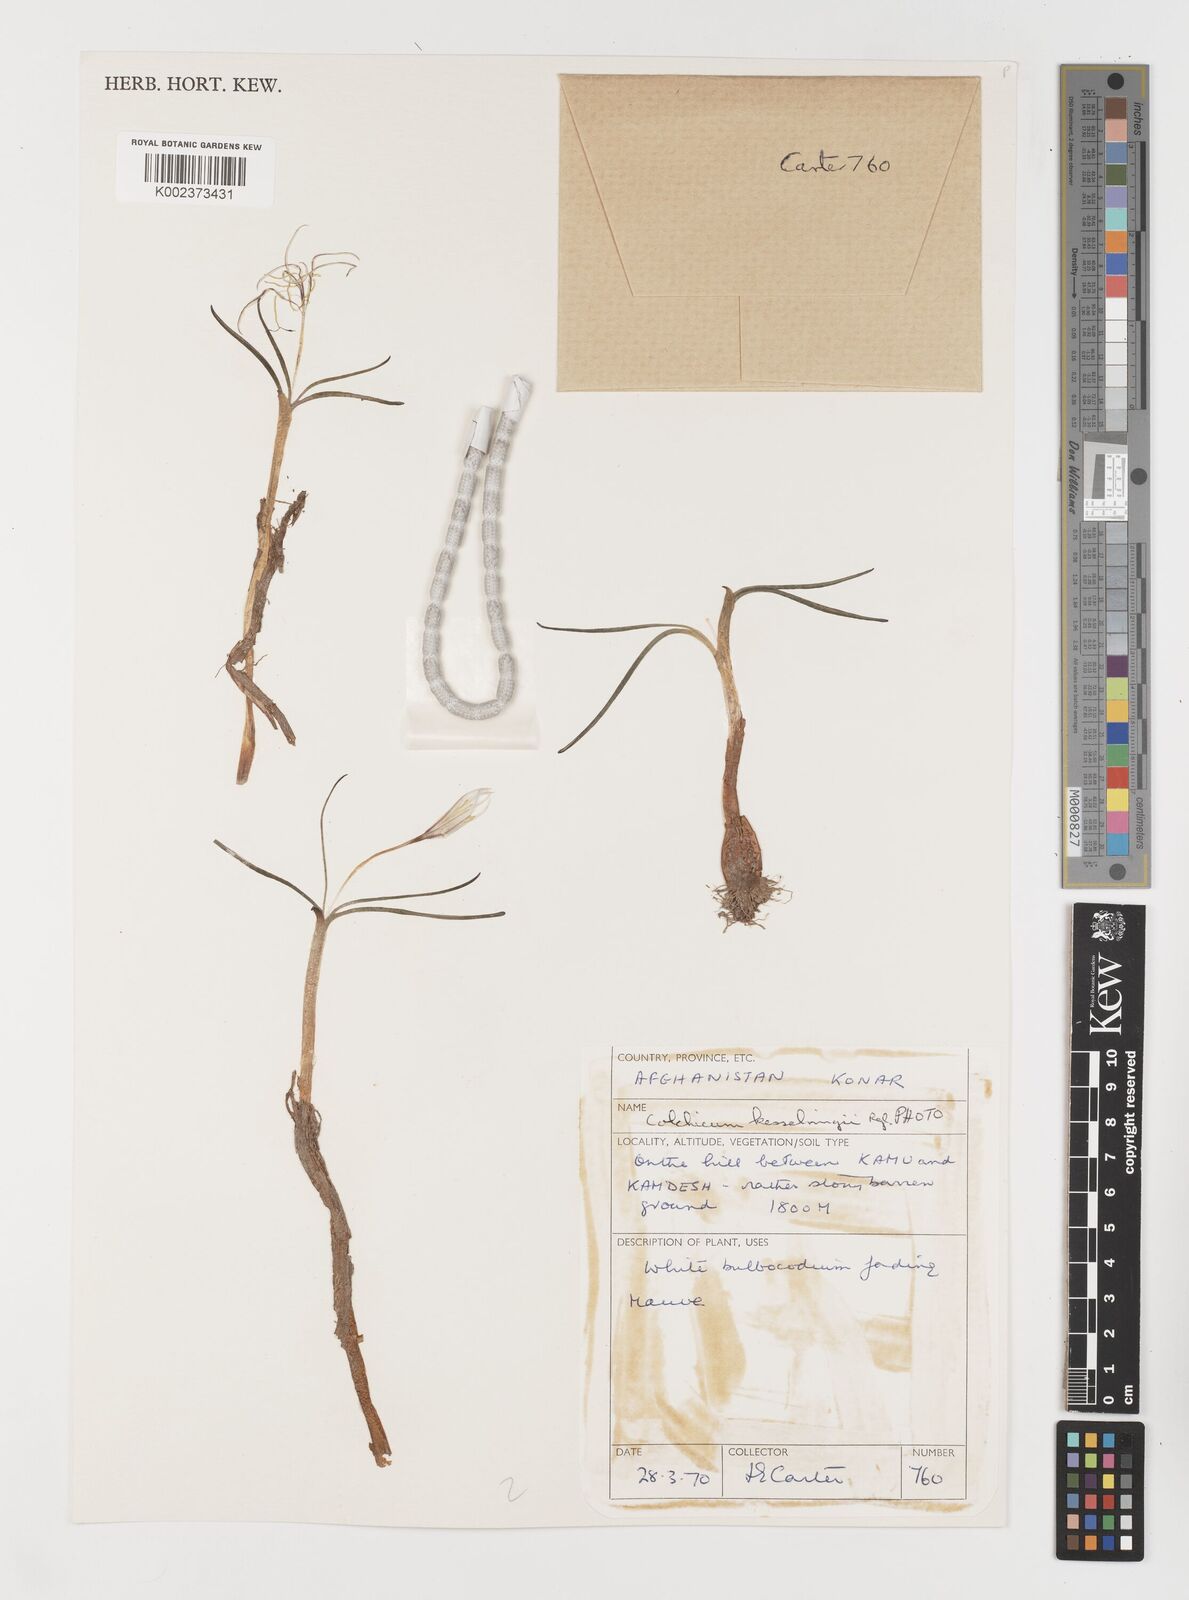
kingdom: Plantae
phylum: Tracheophyta
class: Liliopsida
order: Liliales
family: Colchicaceae
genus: Colchicum
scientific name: Colchicum kesselringii
